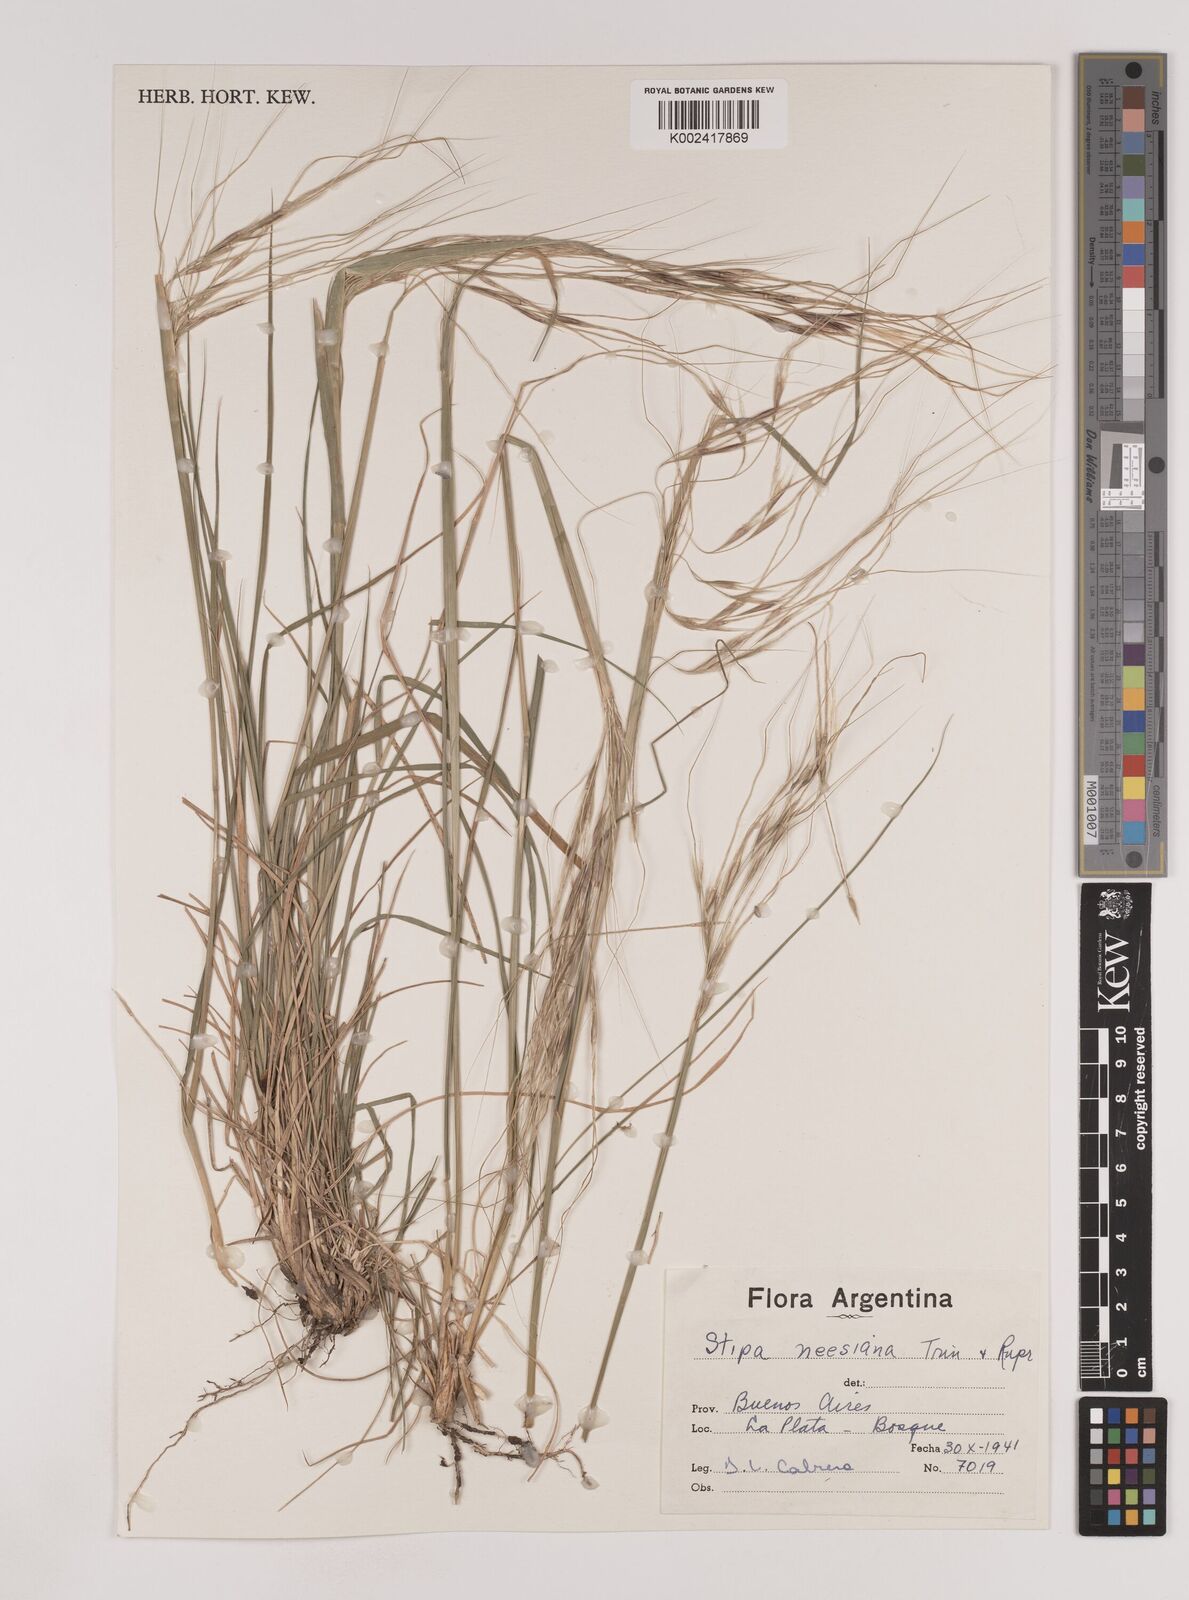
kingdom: Plantae
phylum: Tracheophyta
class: Liliopsida
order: Poales
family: Poaceae
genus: Nassella
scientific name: Nassella neesiana
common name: American needle-grass
